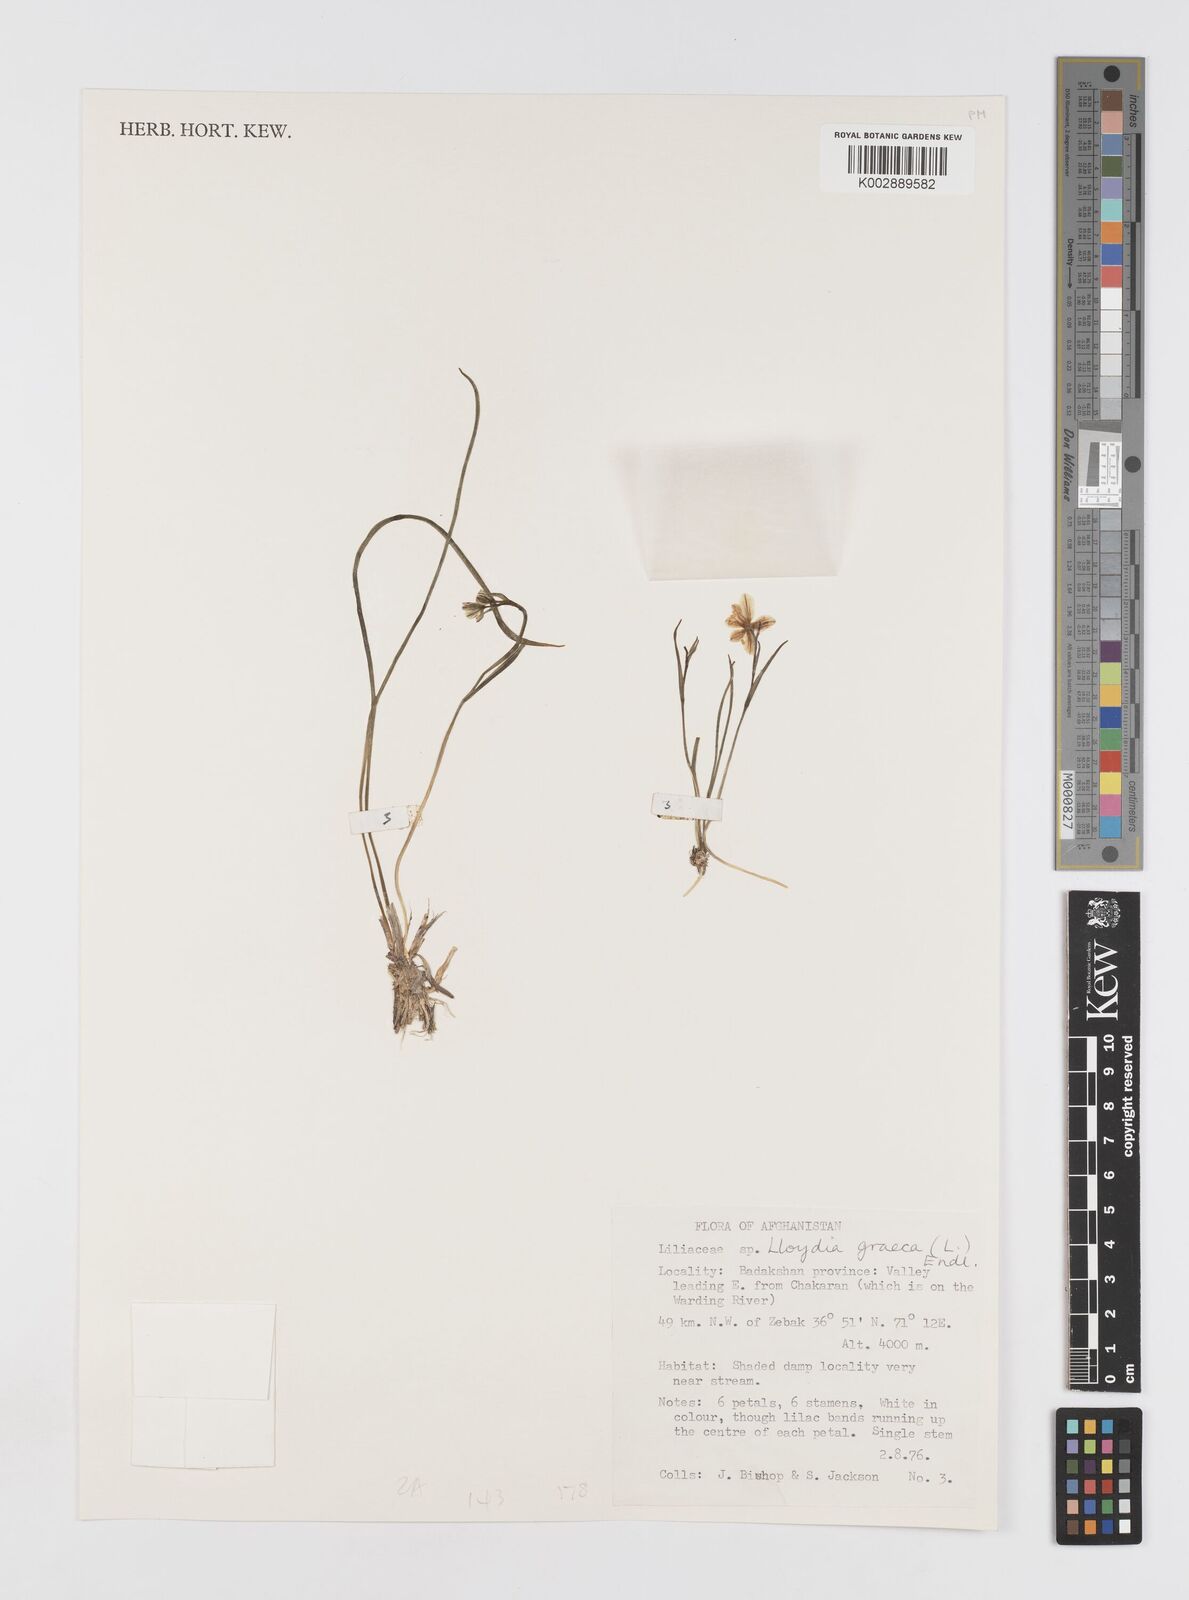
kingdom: Plantae
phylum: Tracheophyta
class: Liliopsida
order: Liliales
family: Liliaceae
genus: Gagea
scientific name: Gagea graeca
